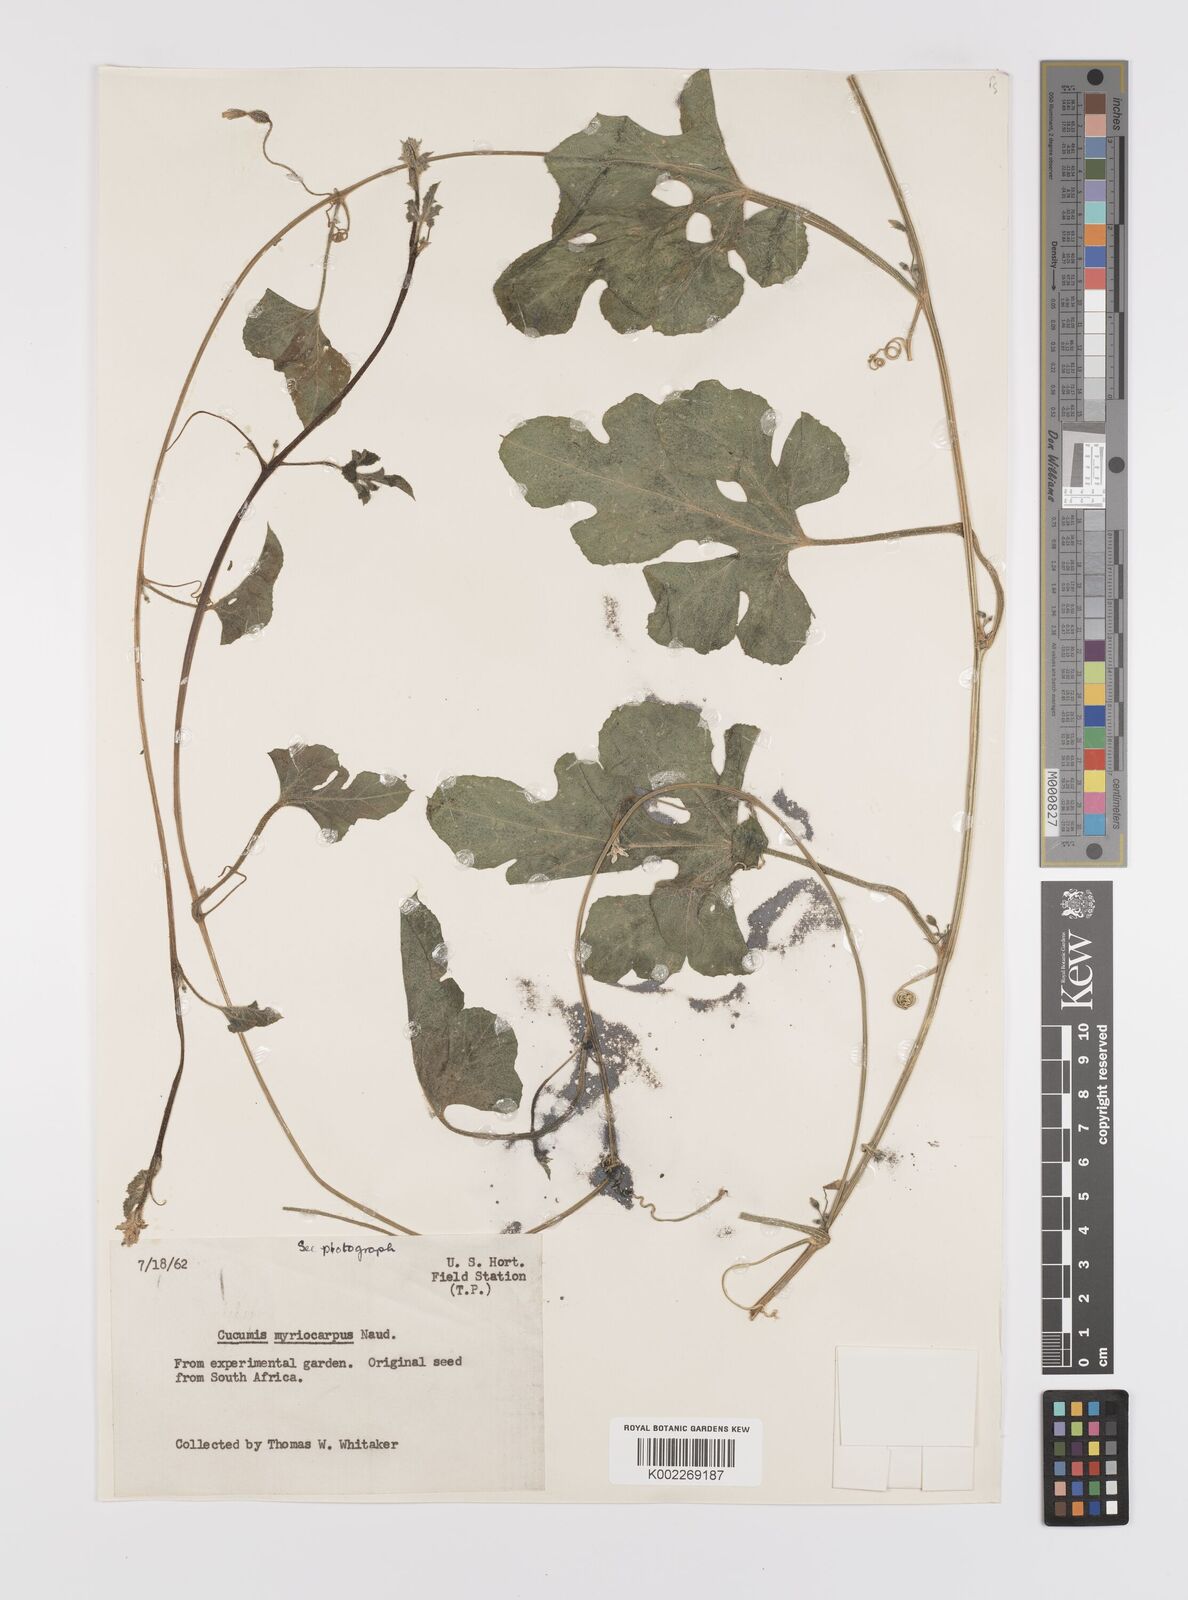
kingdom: Plantae
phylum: Tracheophyta
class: Magnoliopsida
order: Cucurbitales
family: Cucurbitaceae
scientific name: Cucurbitaceae
